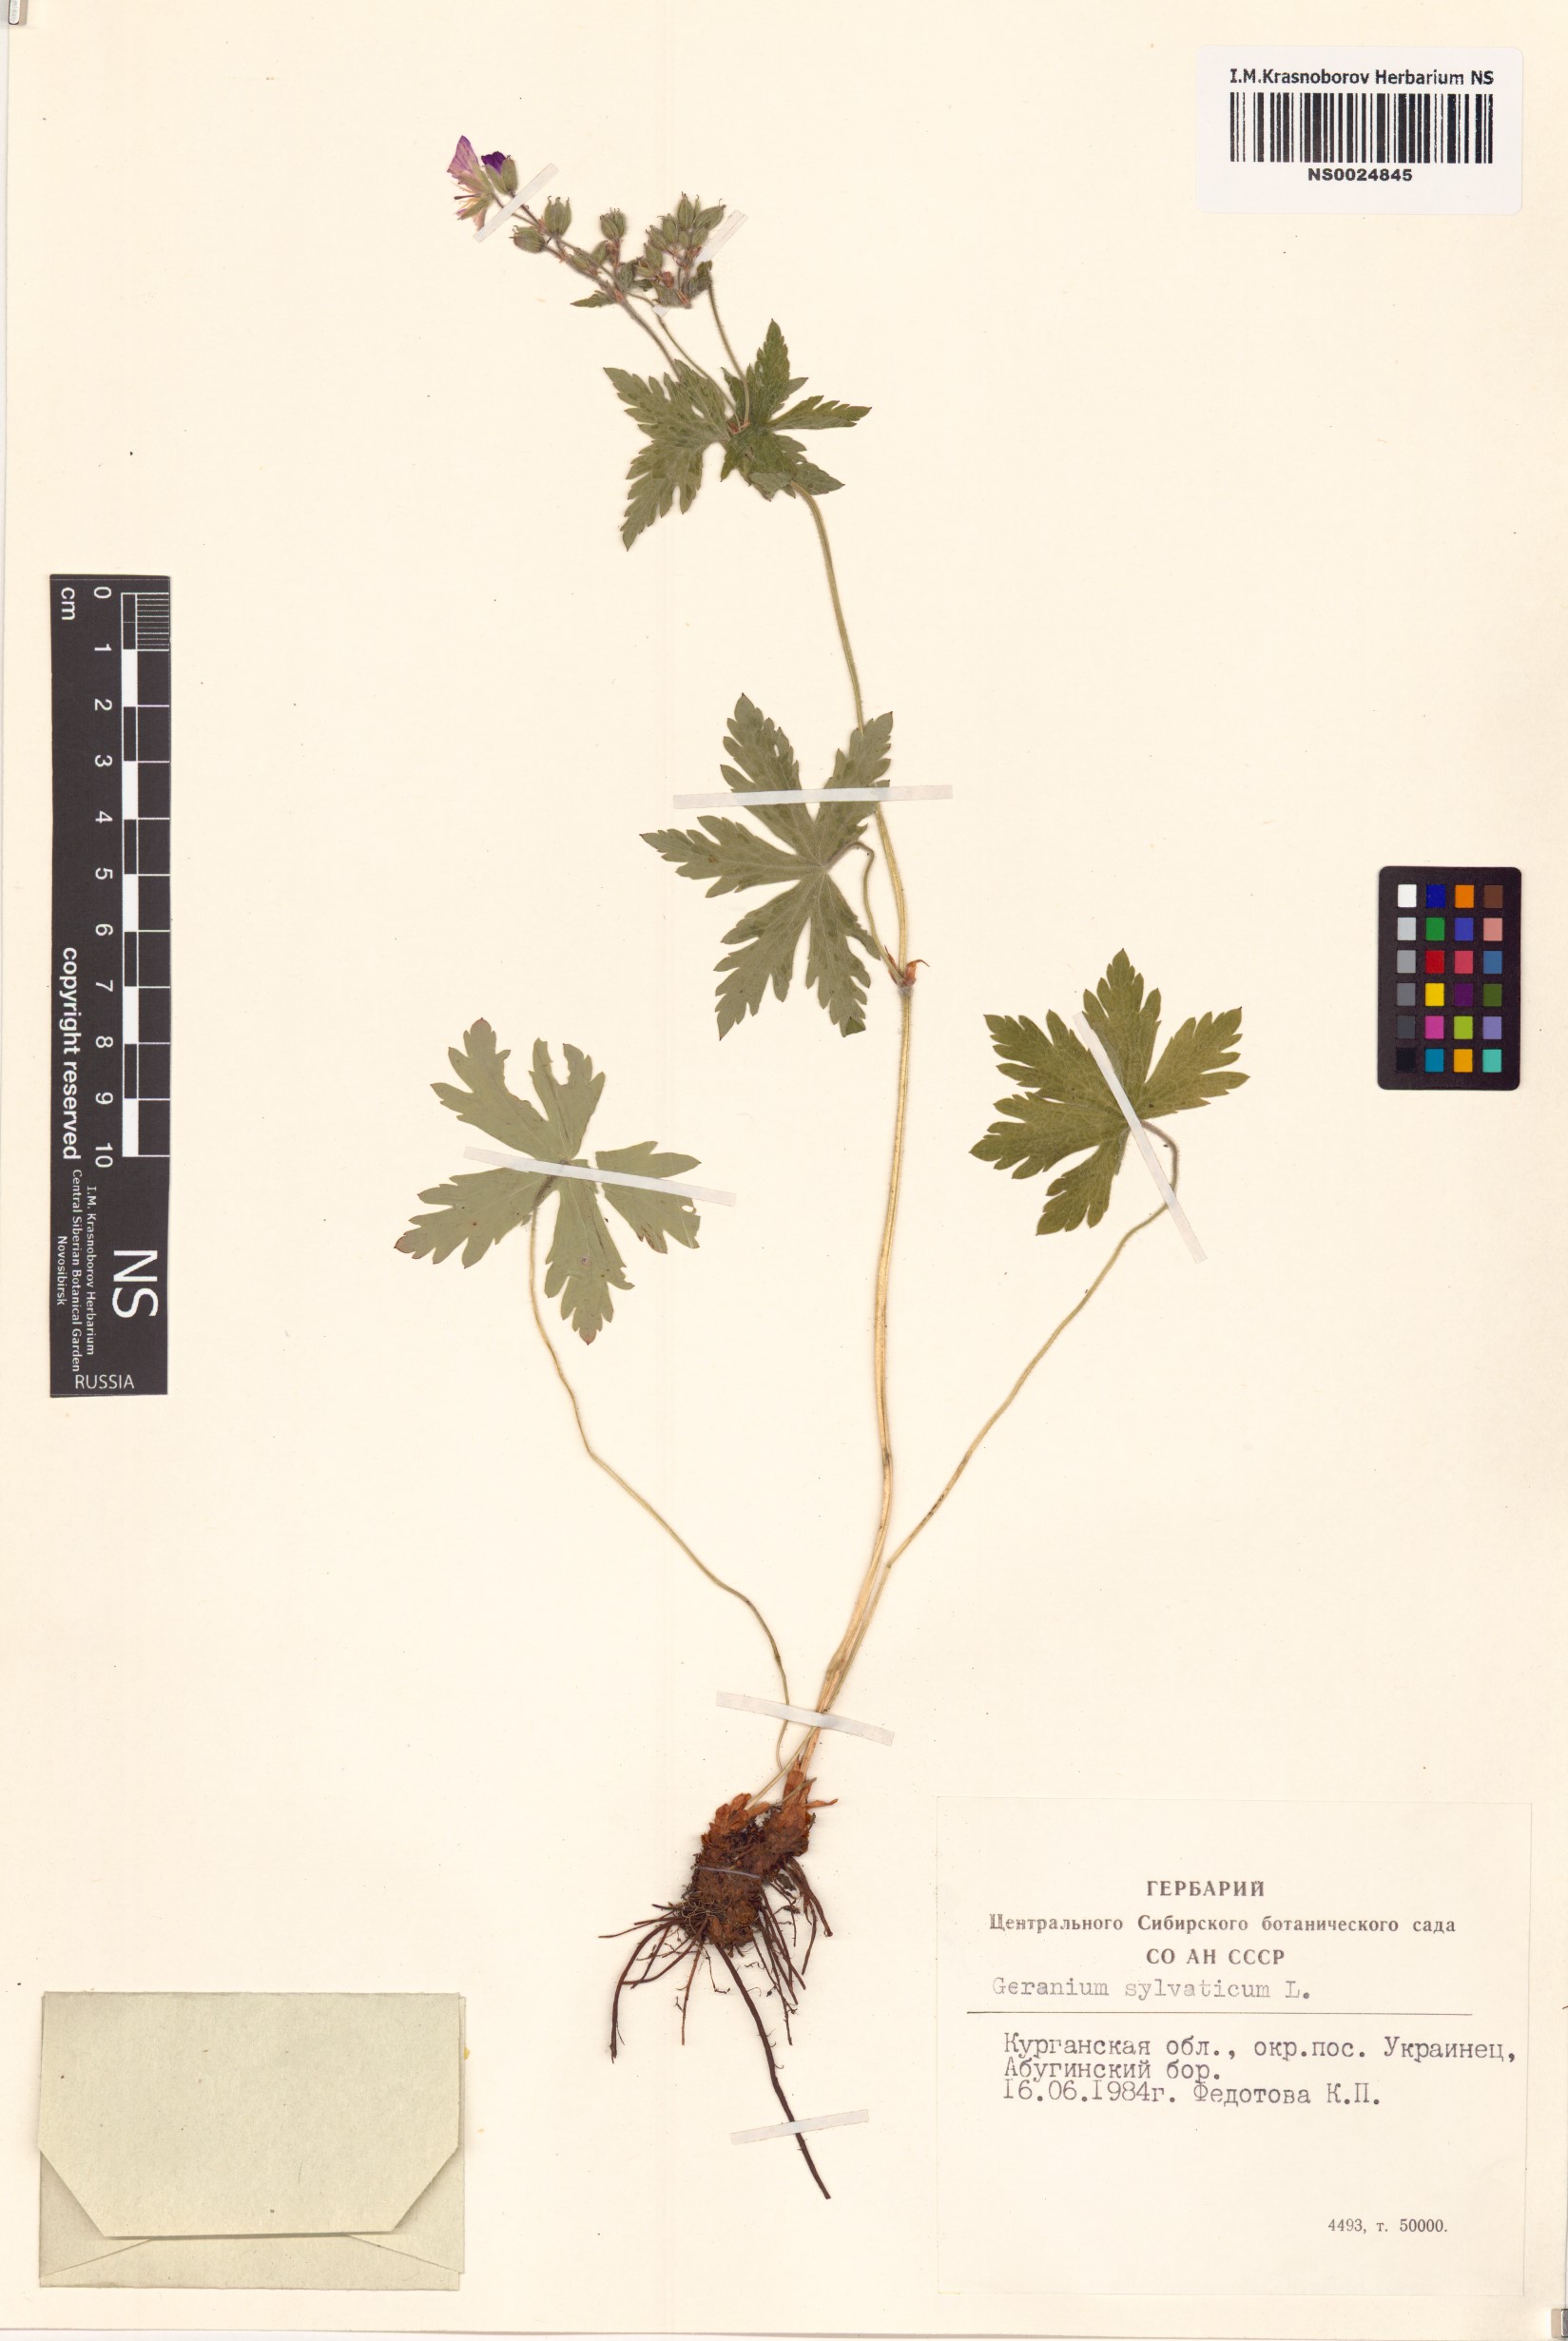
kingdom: Plantae
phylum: Tracheophyta
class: Magnoliopsida
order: Geraniales
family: Geraniaceae
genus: Geranium
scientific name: Geranium sylvaticum
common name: Wood crane's-bill
